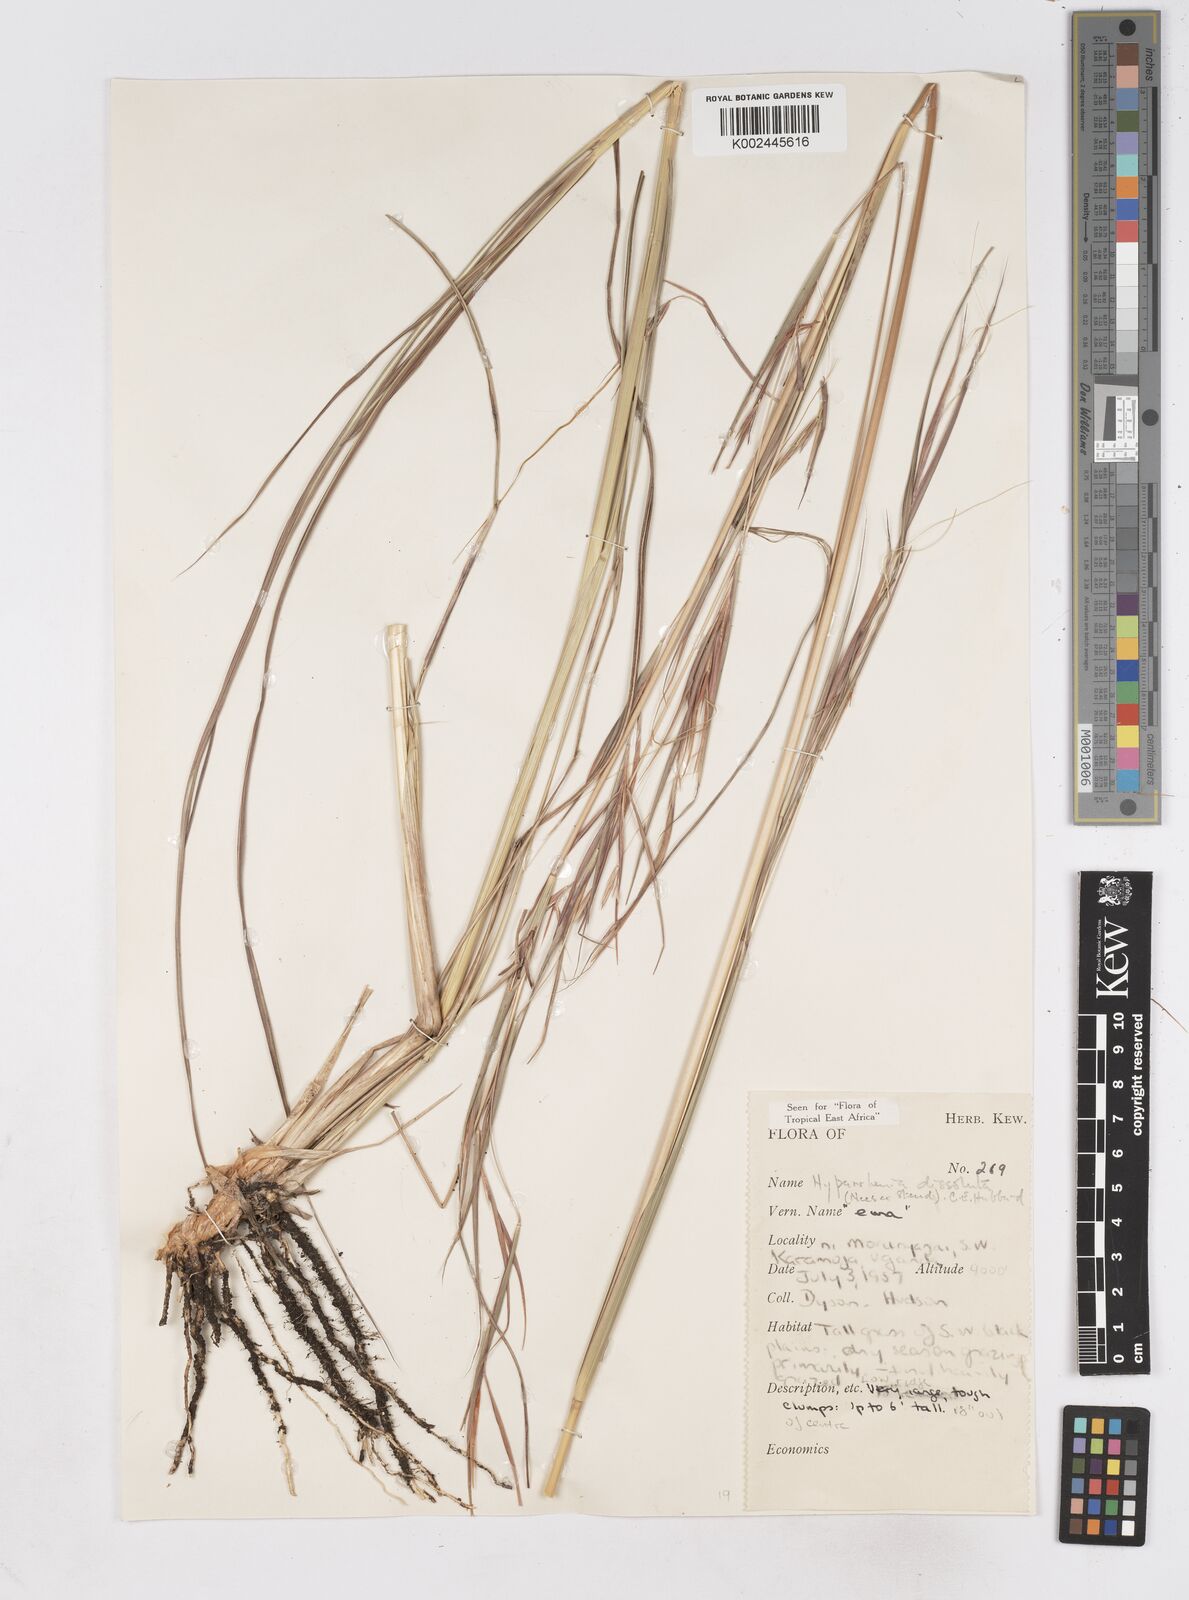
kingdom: Plantae
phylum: Tracheophyta
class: Liliopsida
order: Poales
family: Poaceae
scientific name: Poaceae
